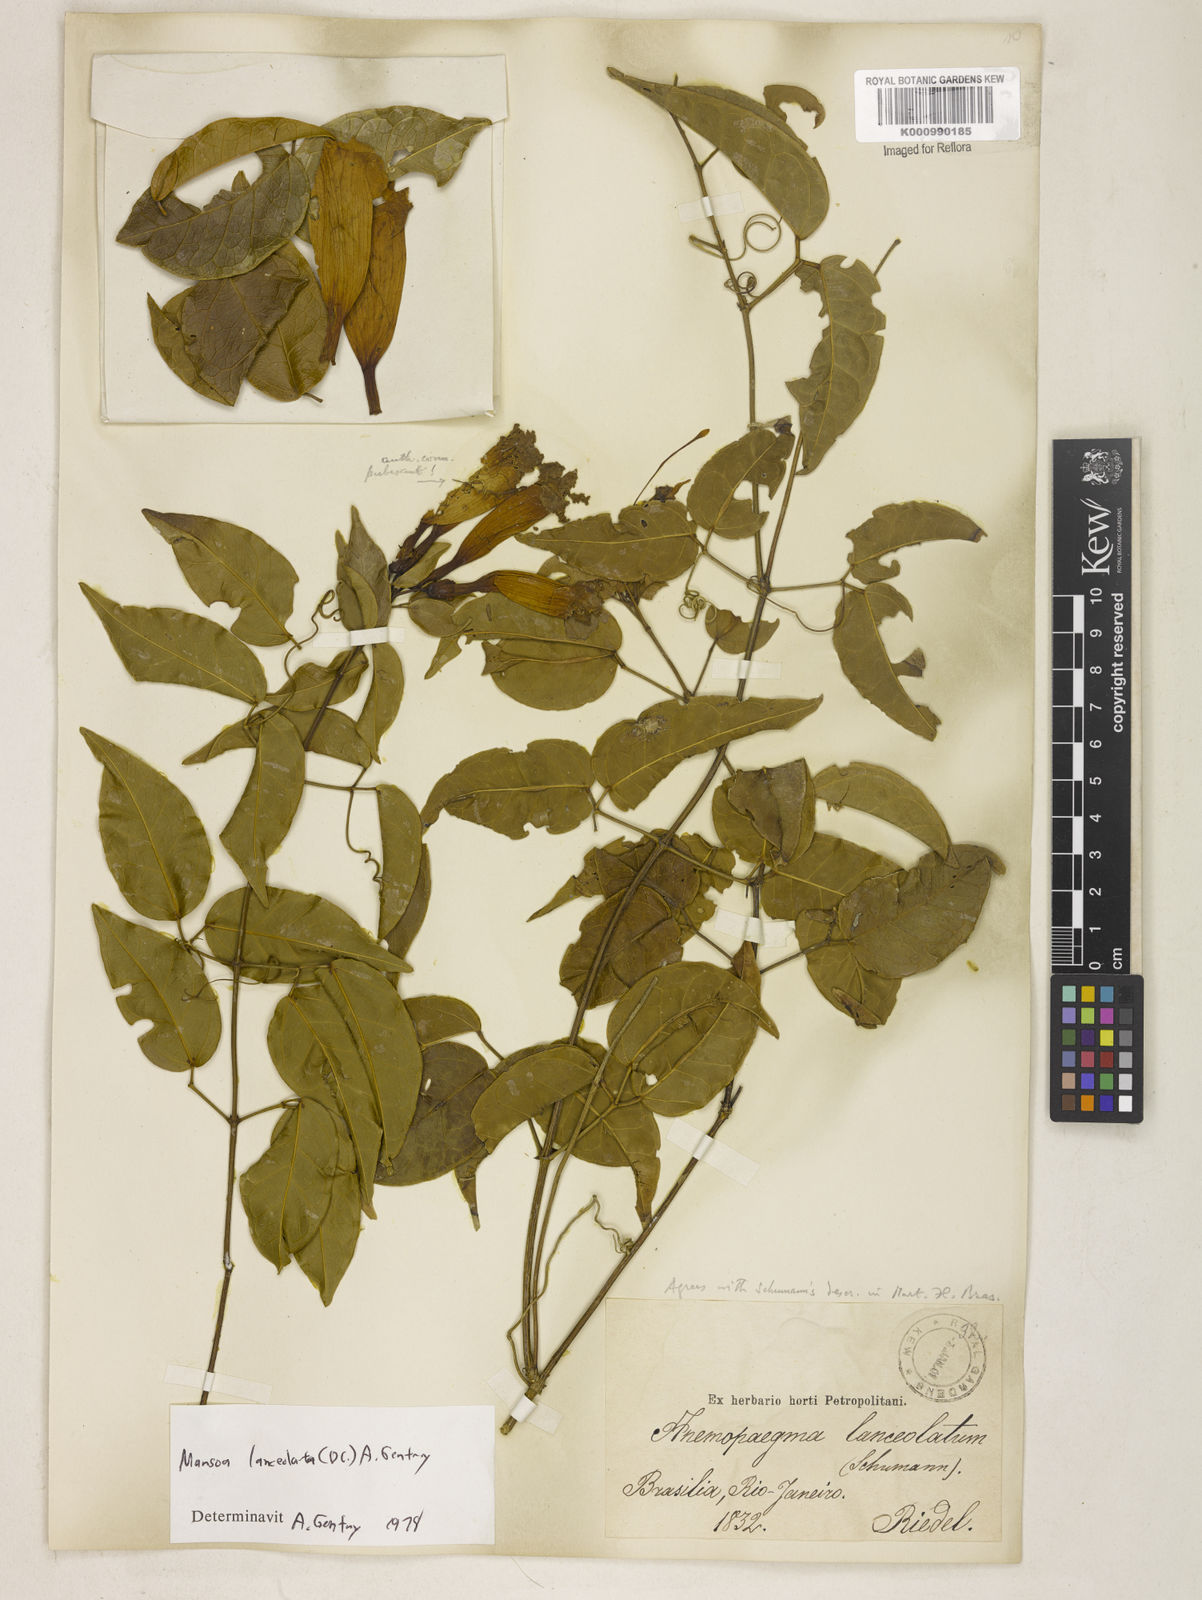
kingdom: Plantae
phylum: Tracheophyta
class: Magnoliopsida
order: Lamiales
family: Bignoniaceae
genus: Mansoa
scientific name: Mansoa difficilis
